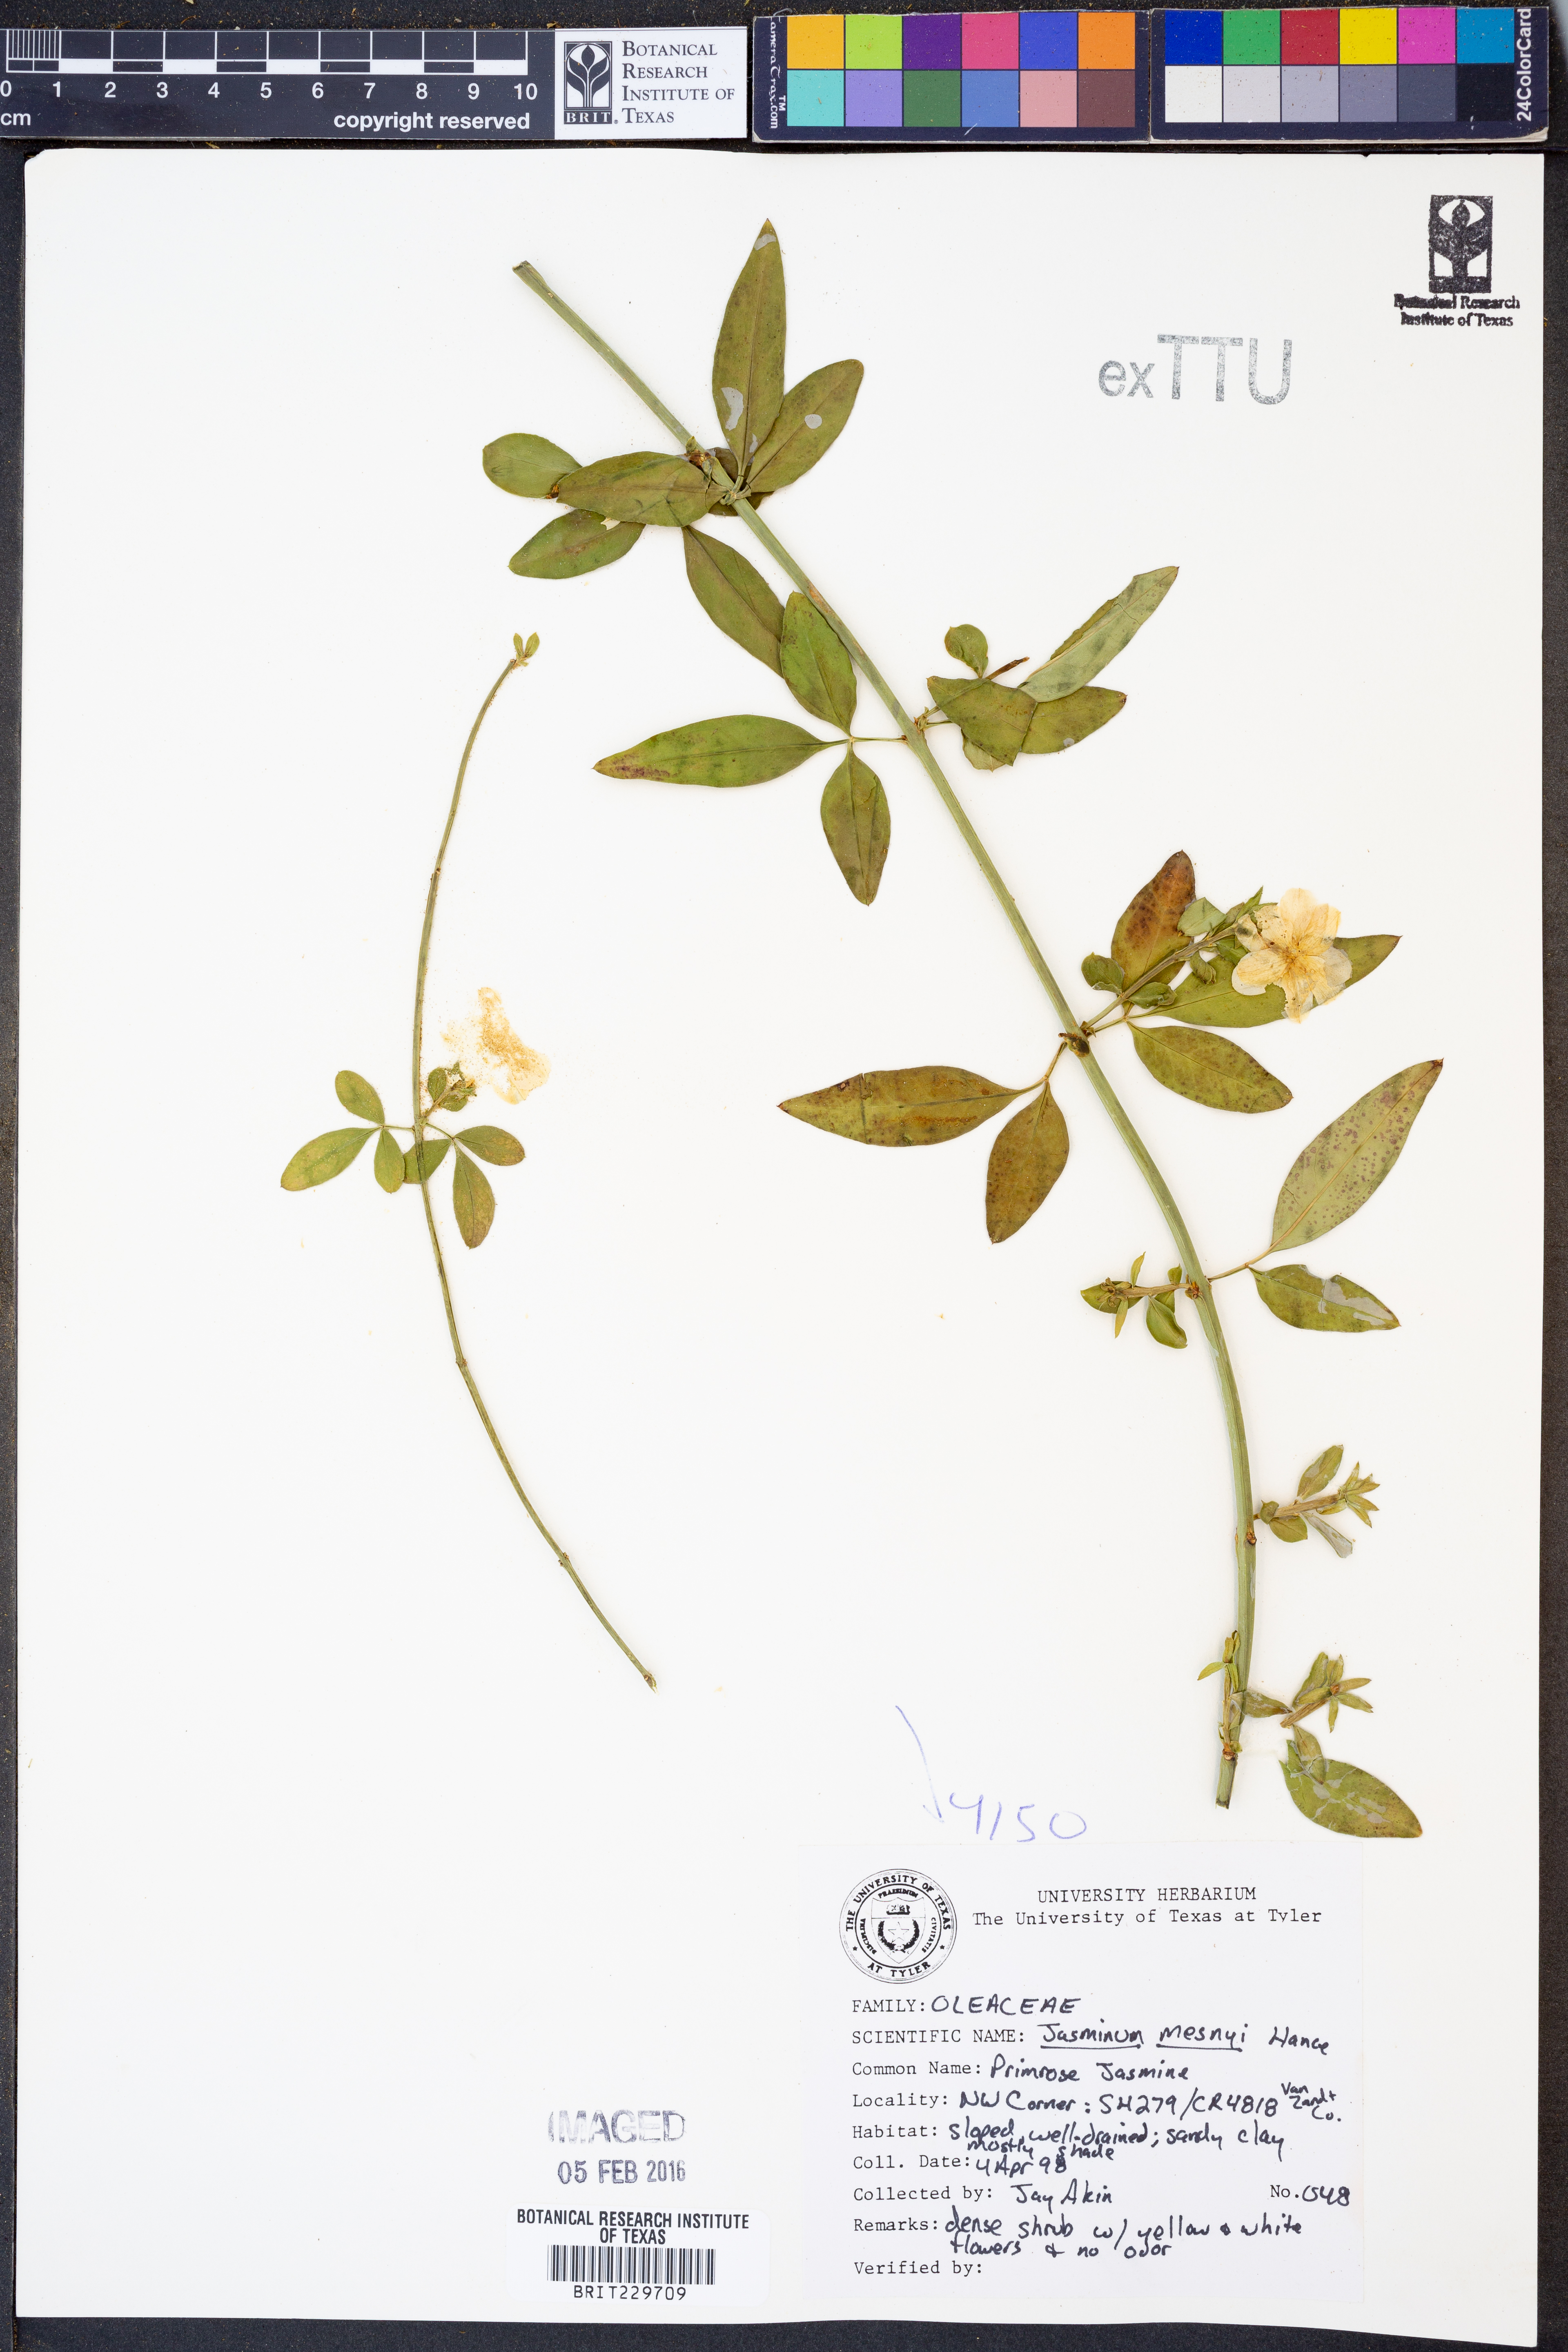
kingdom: Plantae
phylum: Tracheophyta
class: Magnoliopsida
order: Lamiales
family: Oleaceae
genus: Jasminum
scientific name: Jasminum mesnyi
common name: Japanese jasmine
